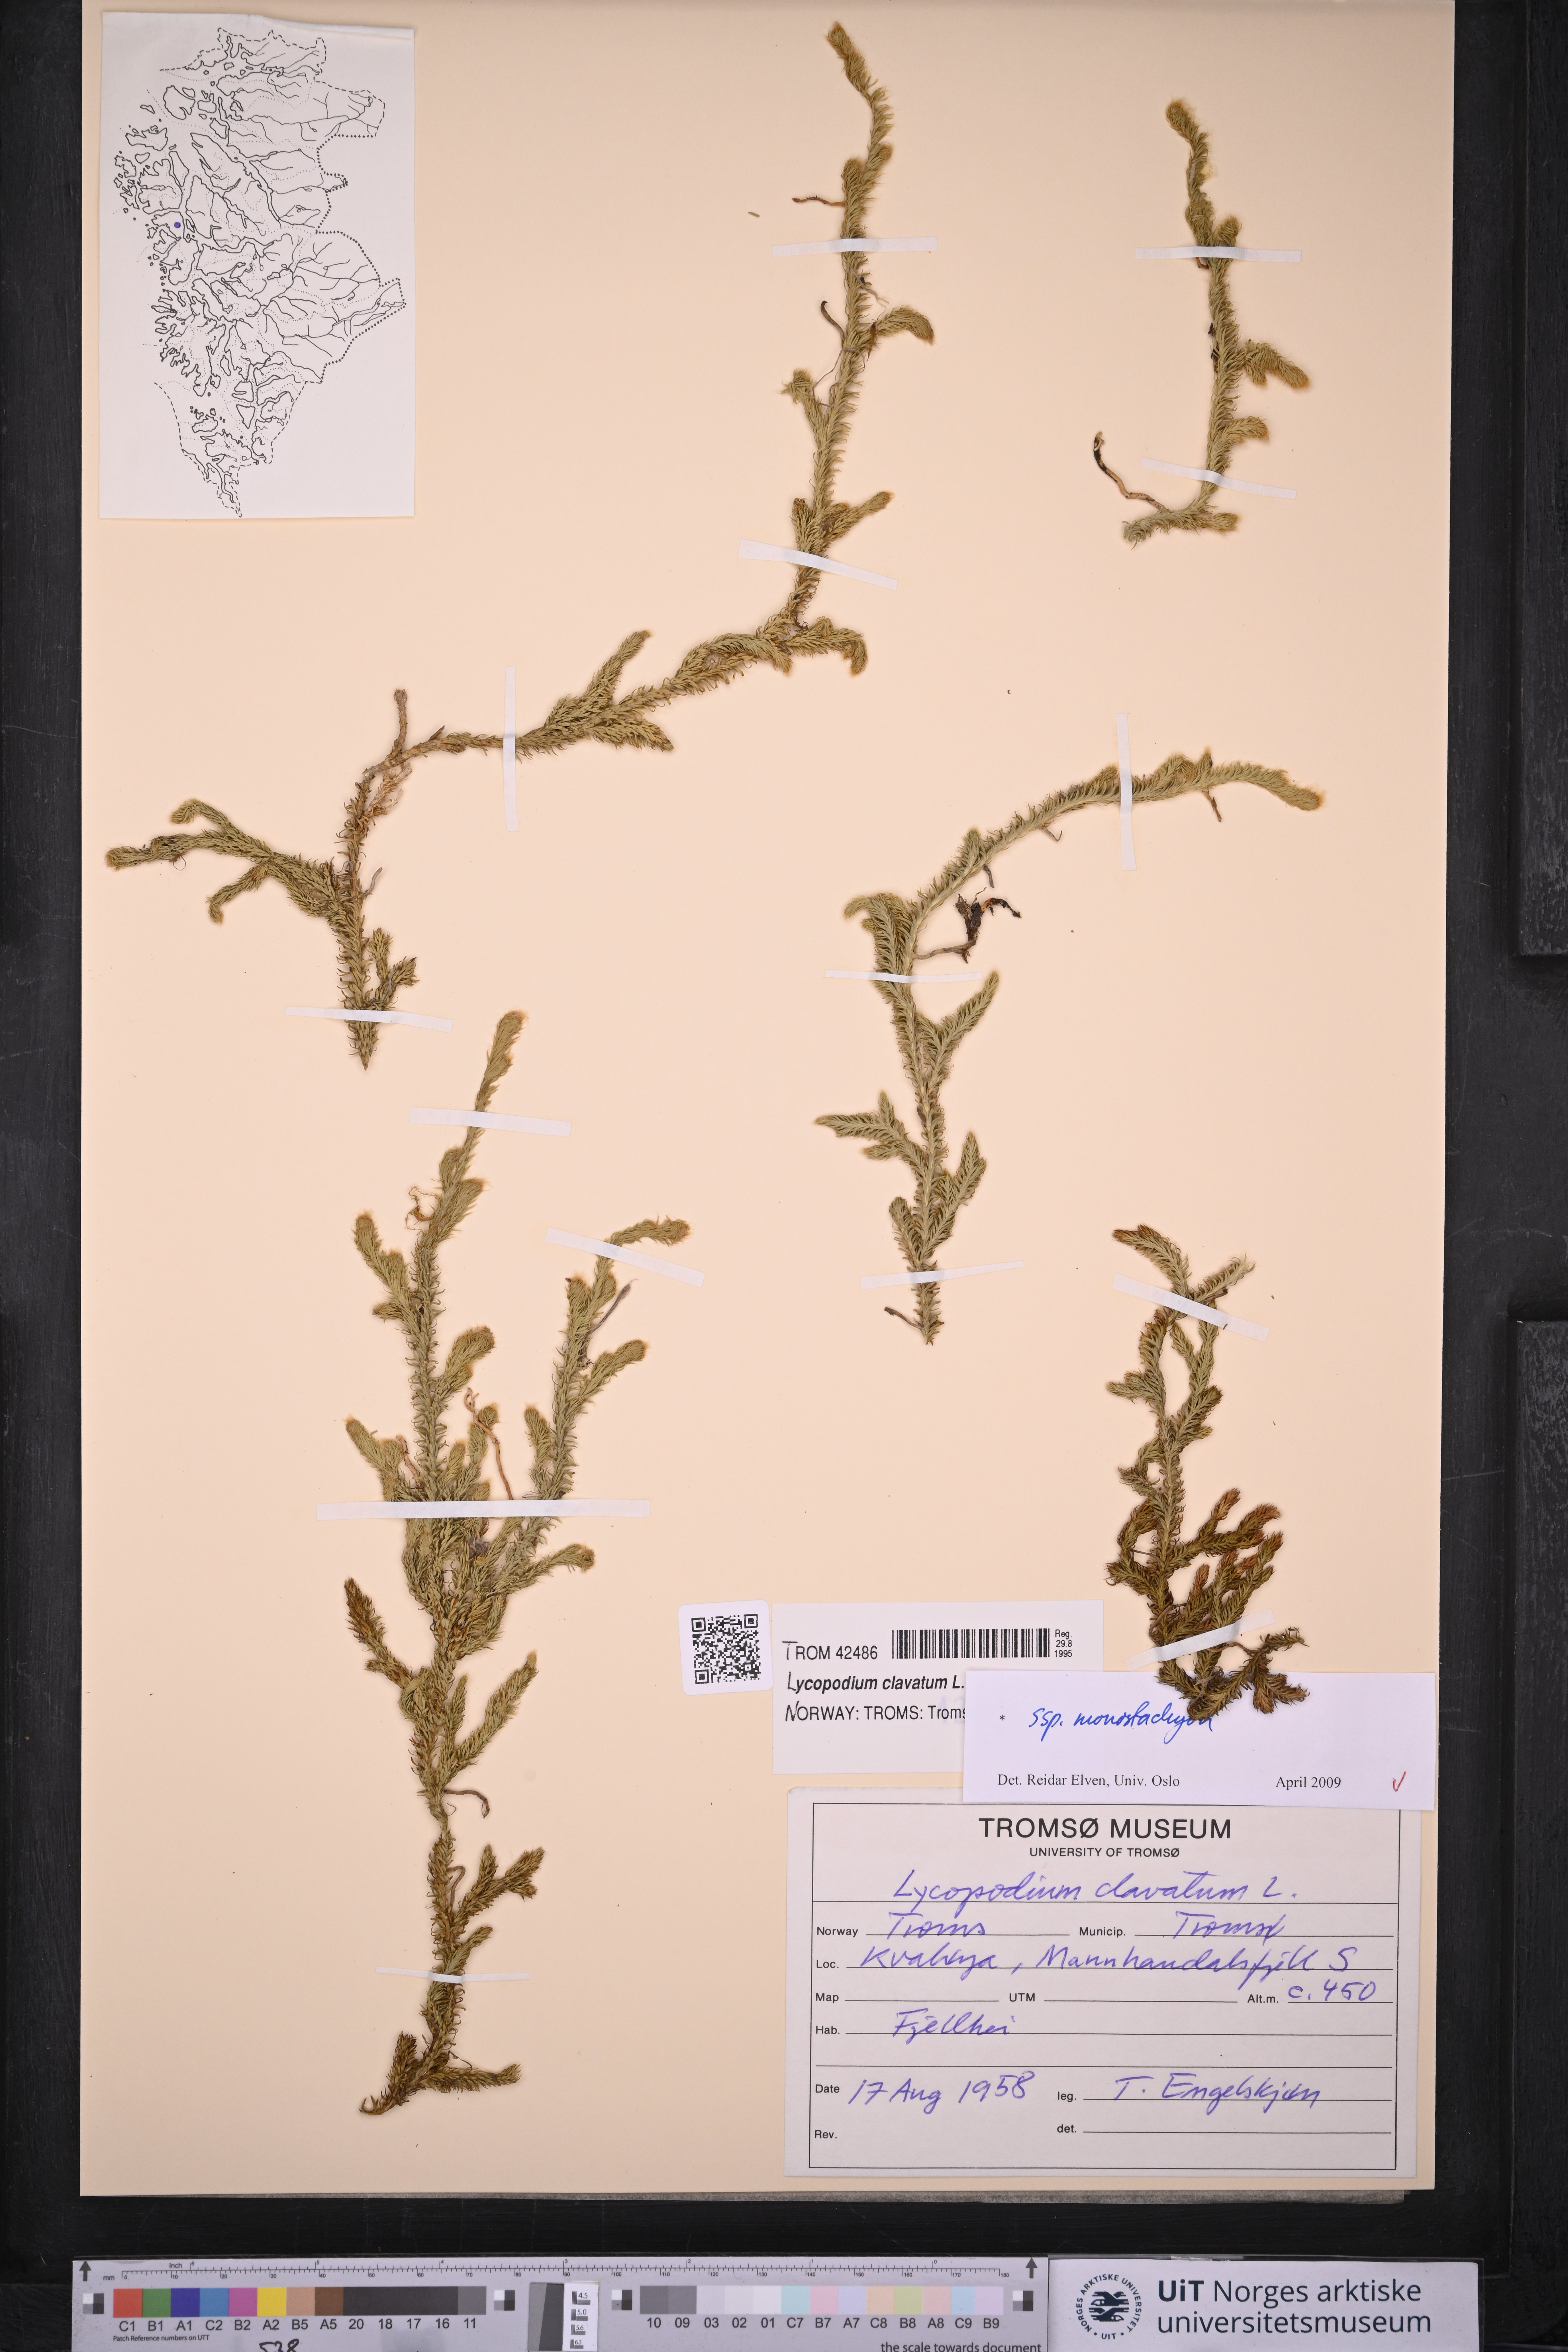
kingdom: Plantae
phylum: Tracheophyta
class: Lycopodiopsida
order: Lycopodiales
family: Lycopodiaceae
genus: Lycopodium
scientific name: Lycopodium lagopus
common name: One-cone clubmoss
